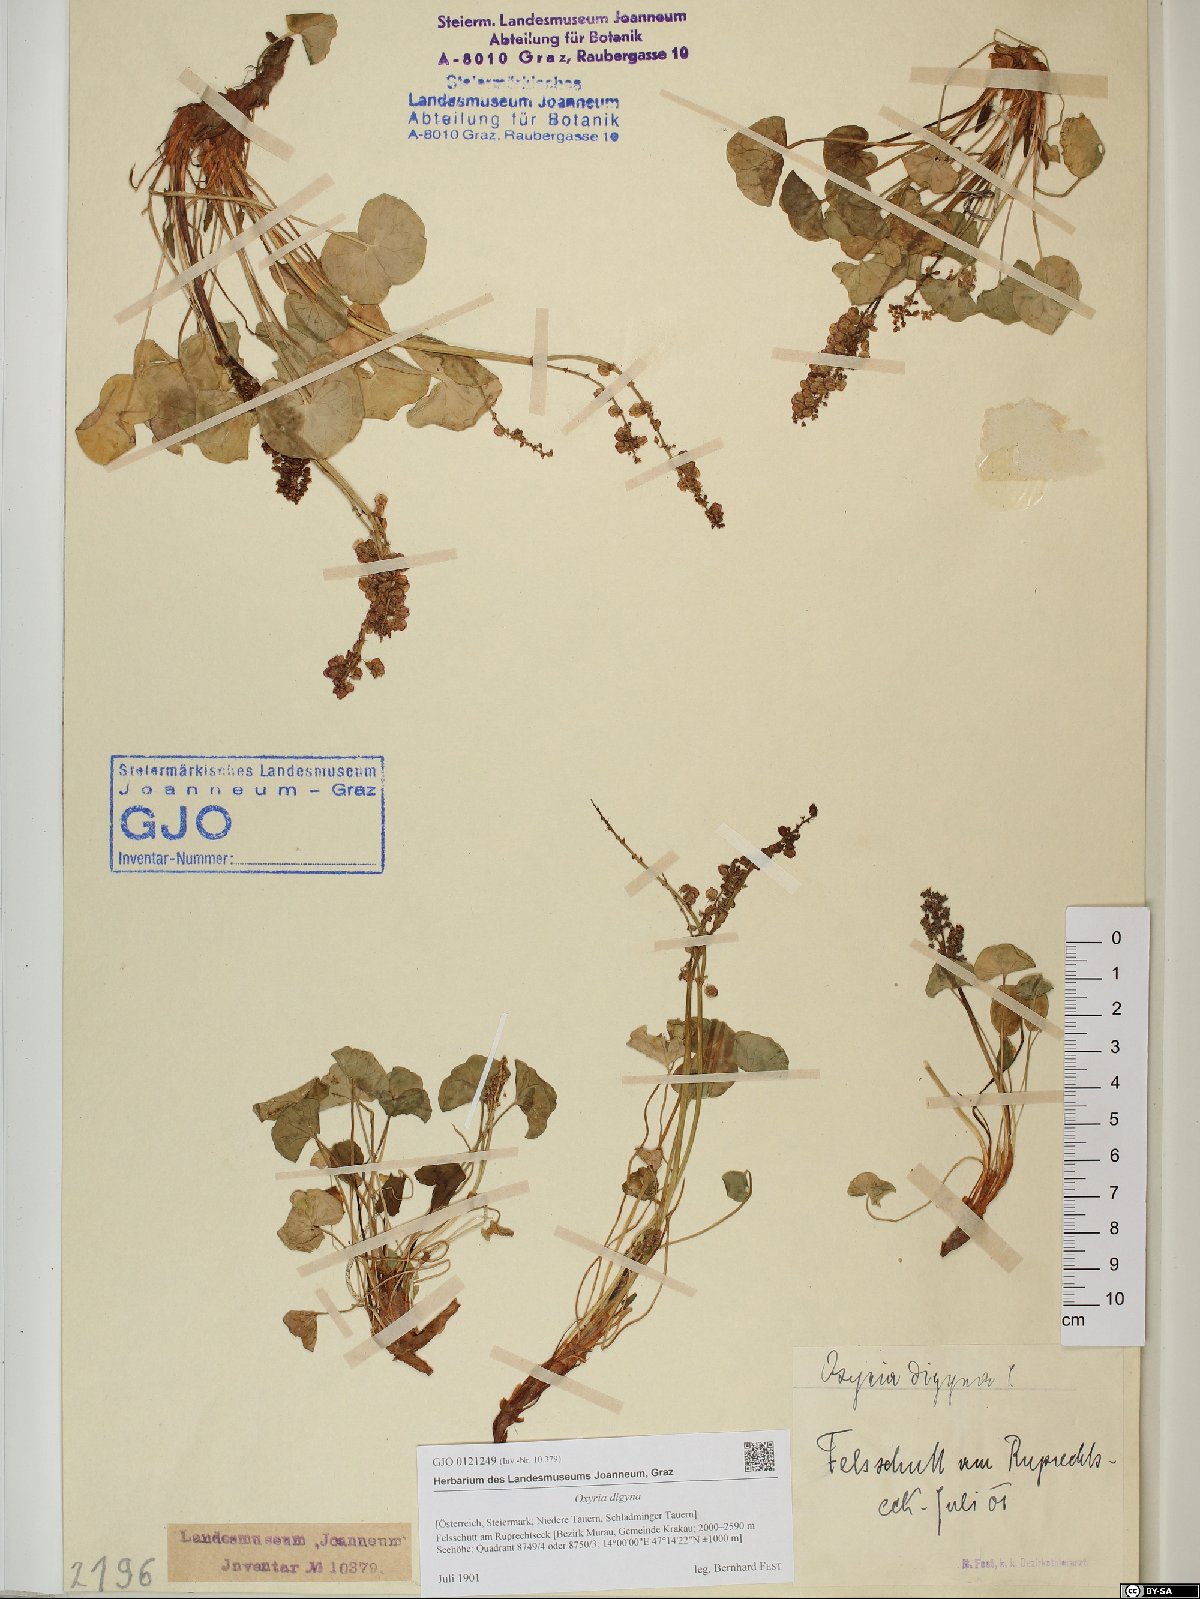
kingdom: Plantae
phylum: Tracheophyta
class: Magnoliopsida
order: Caryophyllales
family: Polygonaceae
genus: Oxyria
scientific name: Oxyria digyna
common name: Alpine mountain-sorrel
